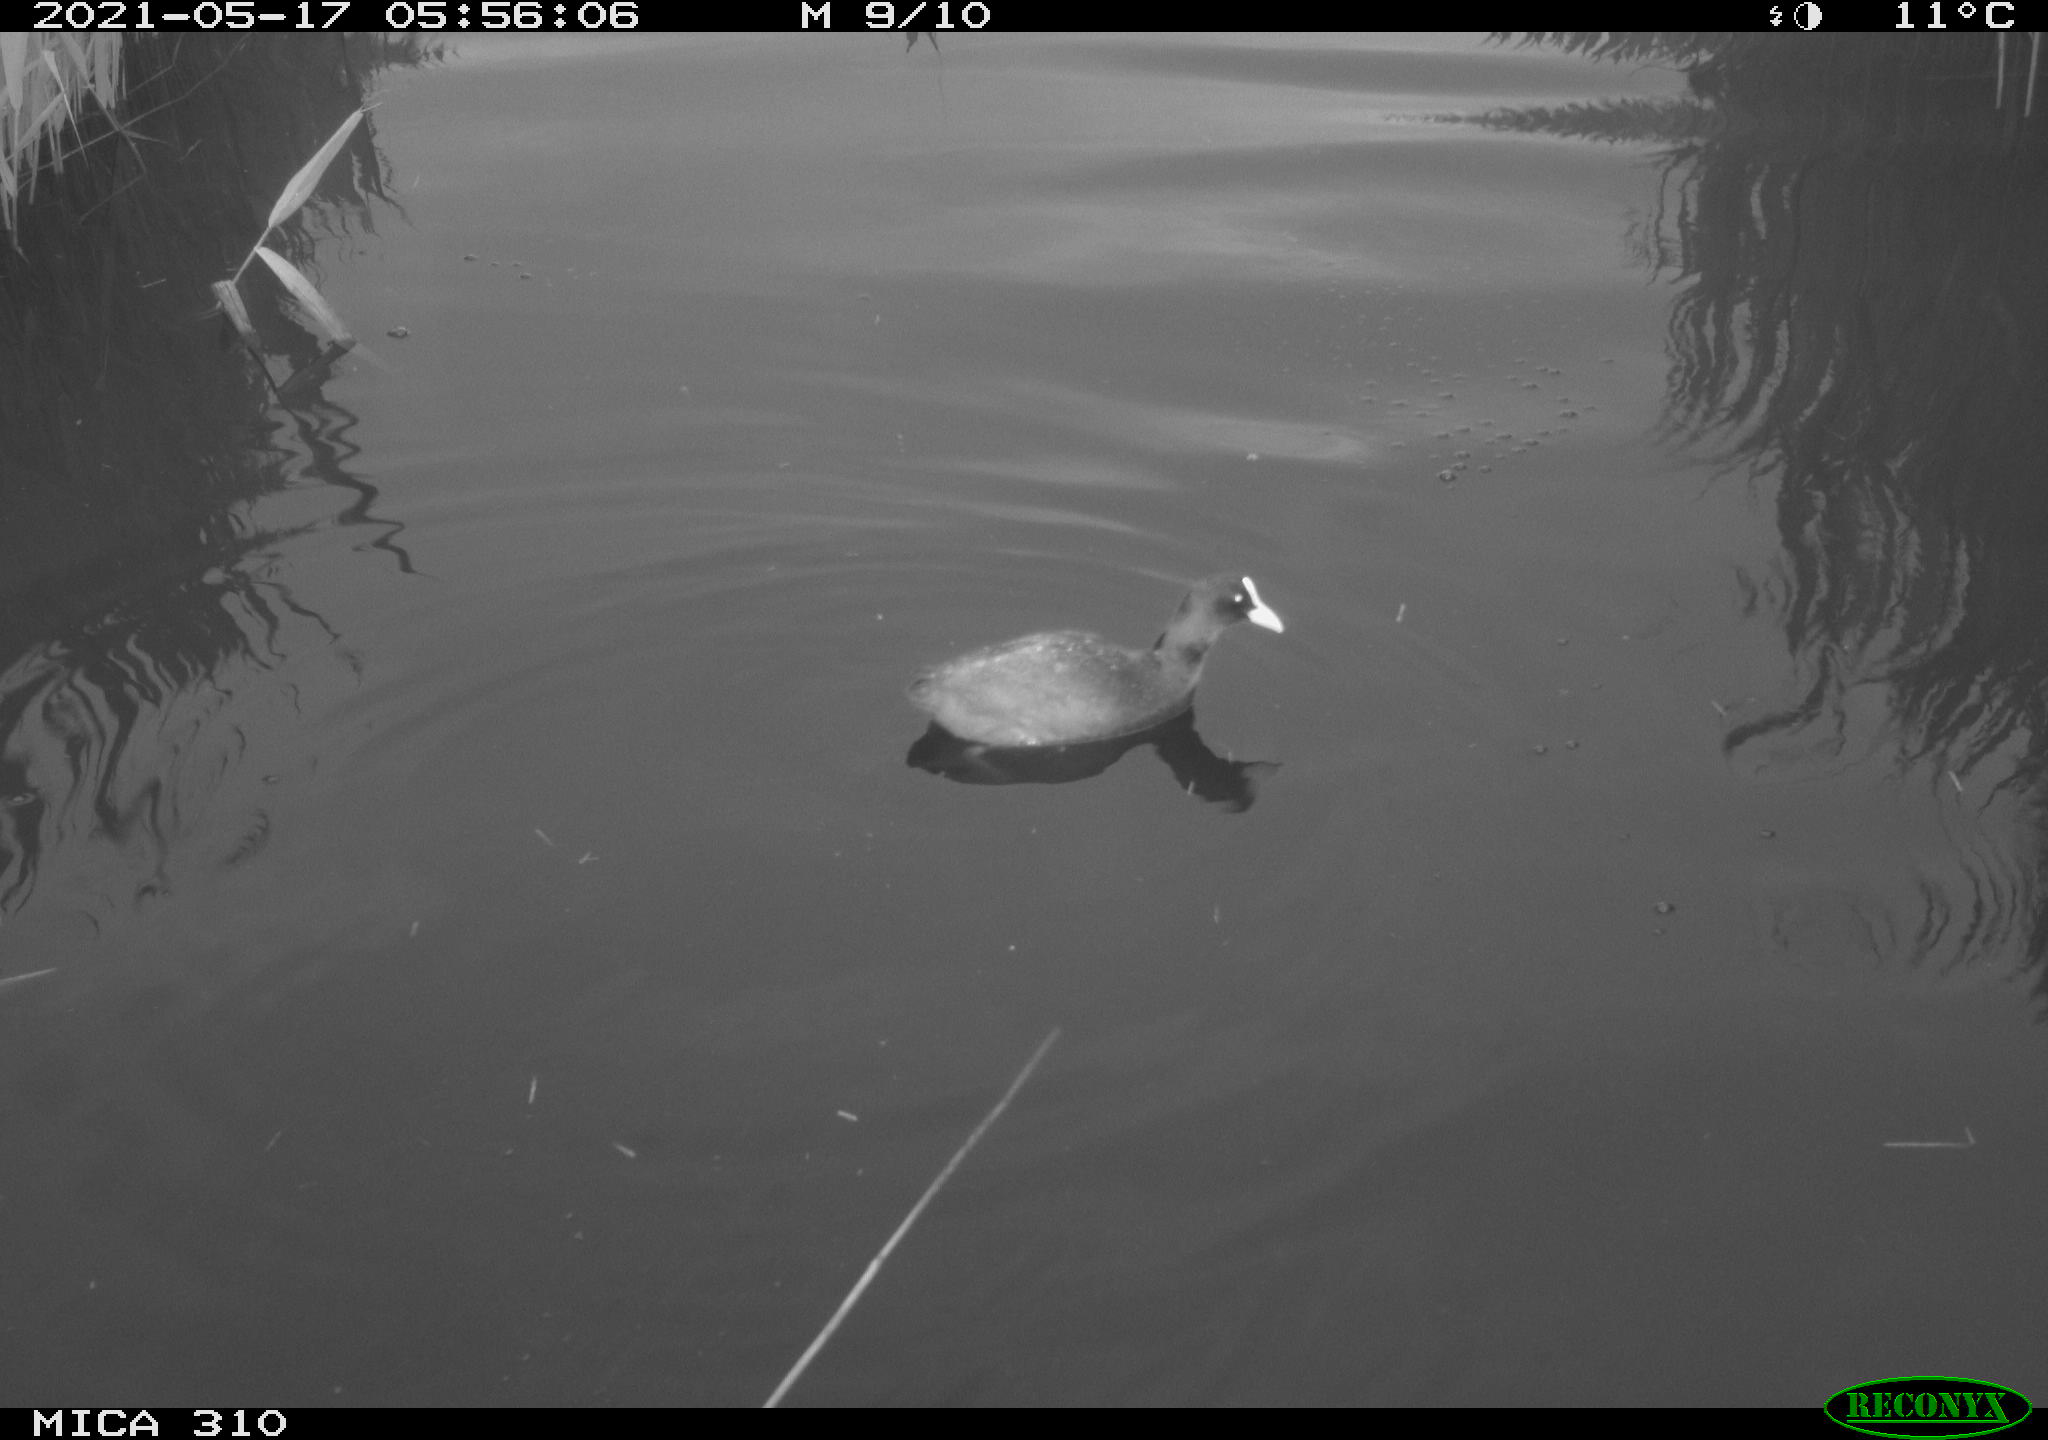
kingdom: Animalia
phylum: Chordata
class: Aves
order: Gruiformes
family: Rallidae
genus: Fulica
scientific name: Fulica atra
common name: Eurasian coot
